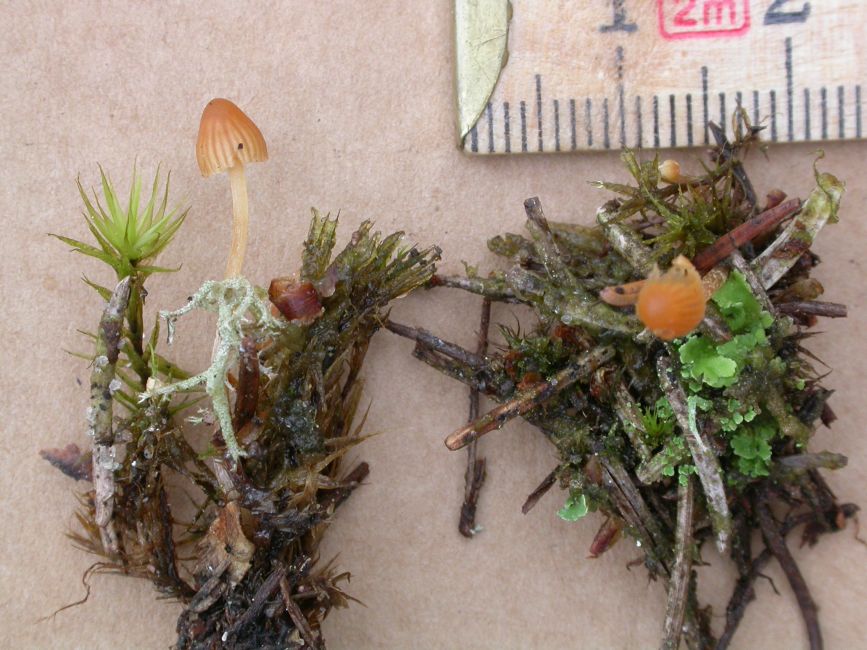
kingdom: Fungi
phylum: Basidiomycota
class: Agaricomycetes
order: Agaricales
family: Hymenogastraceae
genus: Galerina
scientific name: Galerina calyptrata
